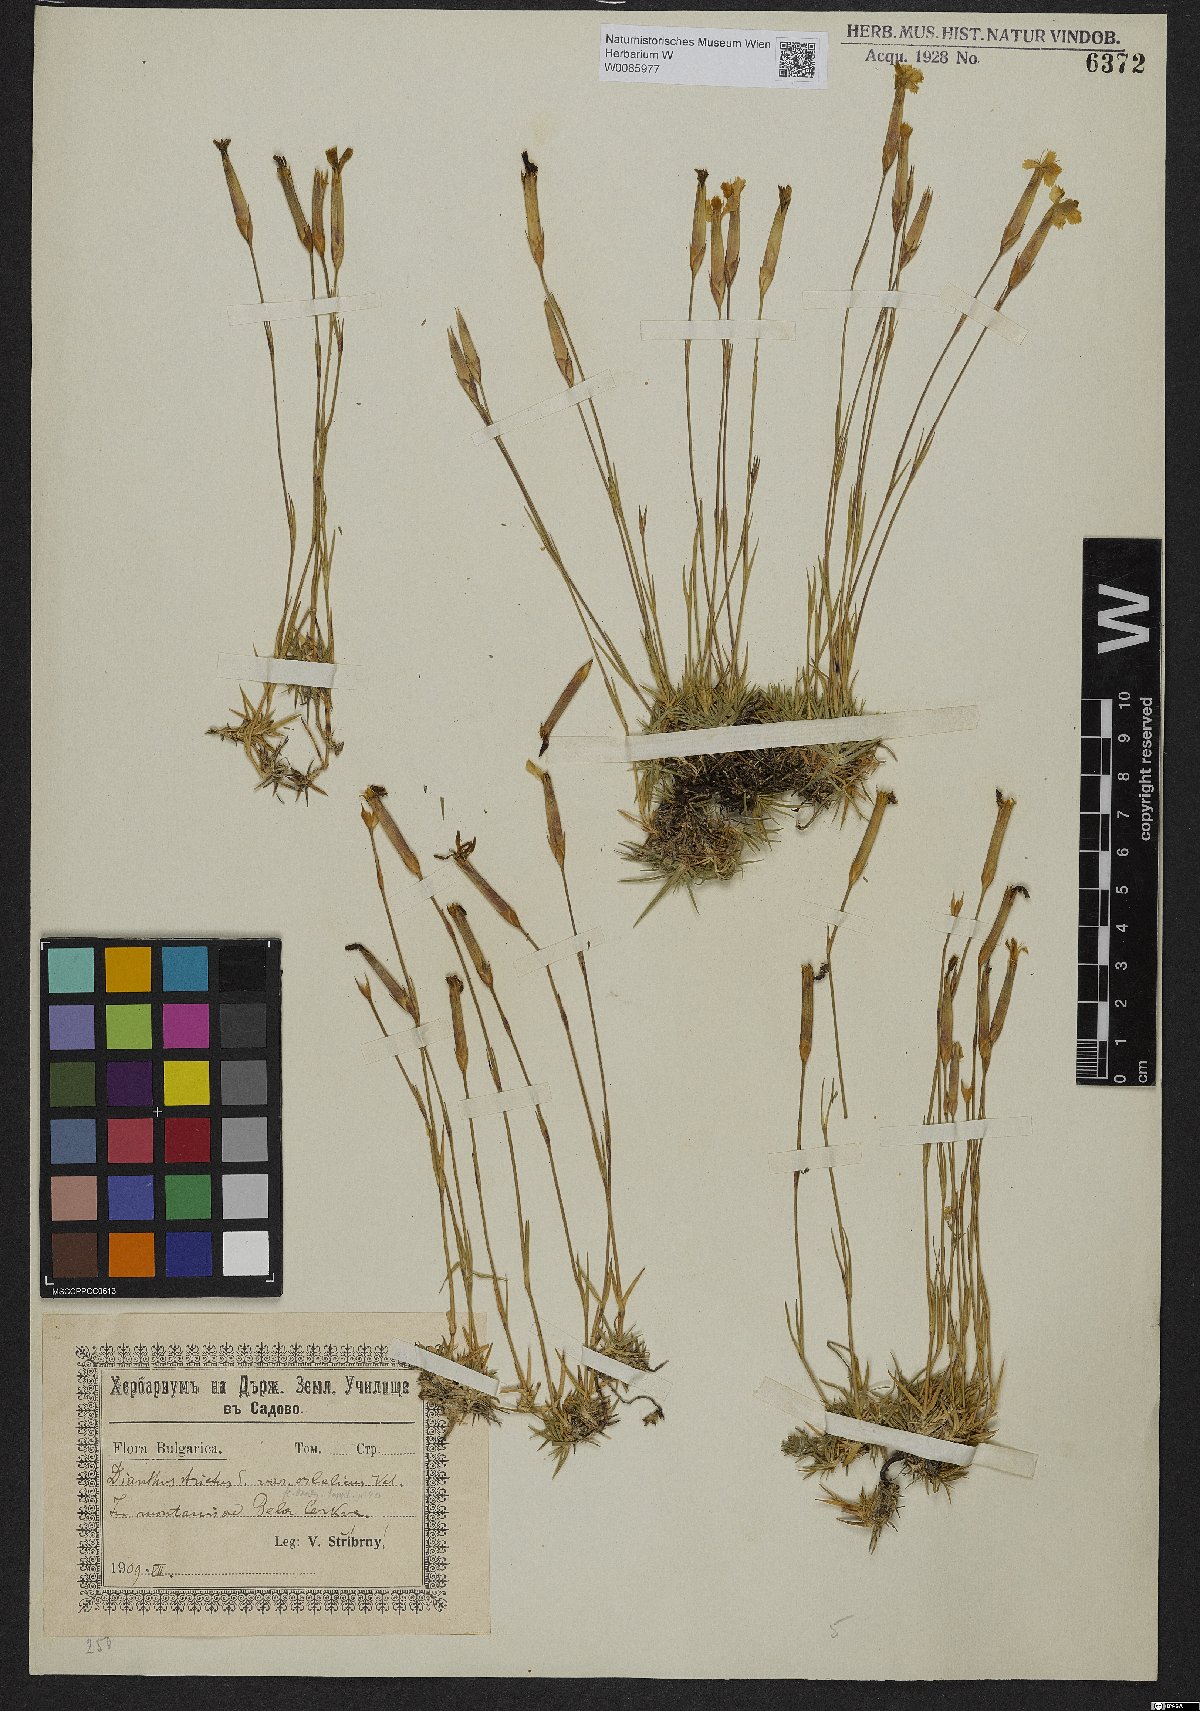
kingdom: Plantae
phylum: Tracheophyta
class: Magnoliopsida
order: Caryophyllales
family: Caryophyllaceae
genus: Dianthus
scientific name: Dianthus petraeus
